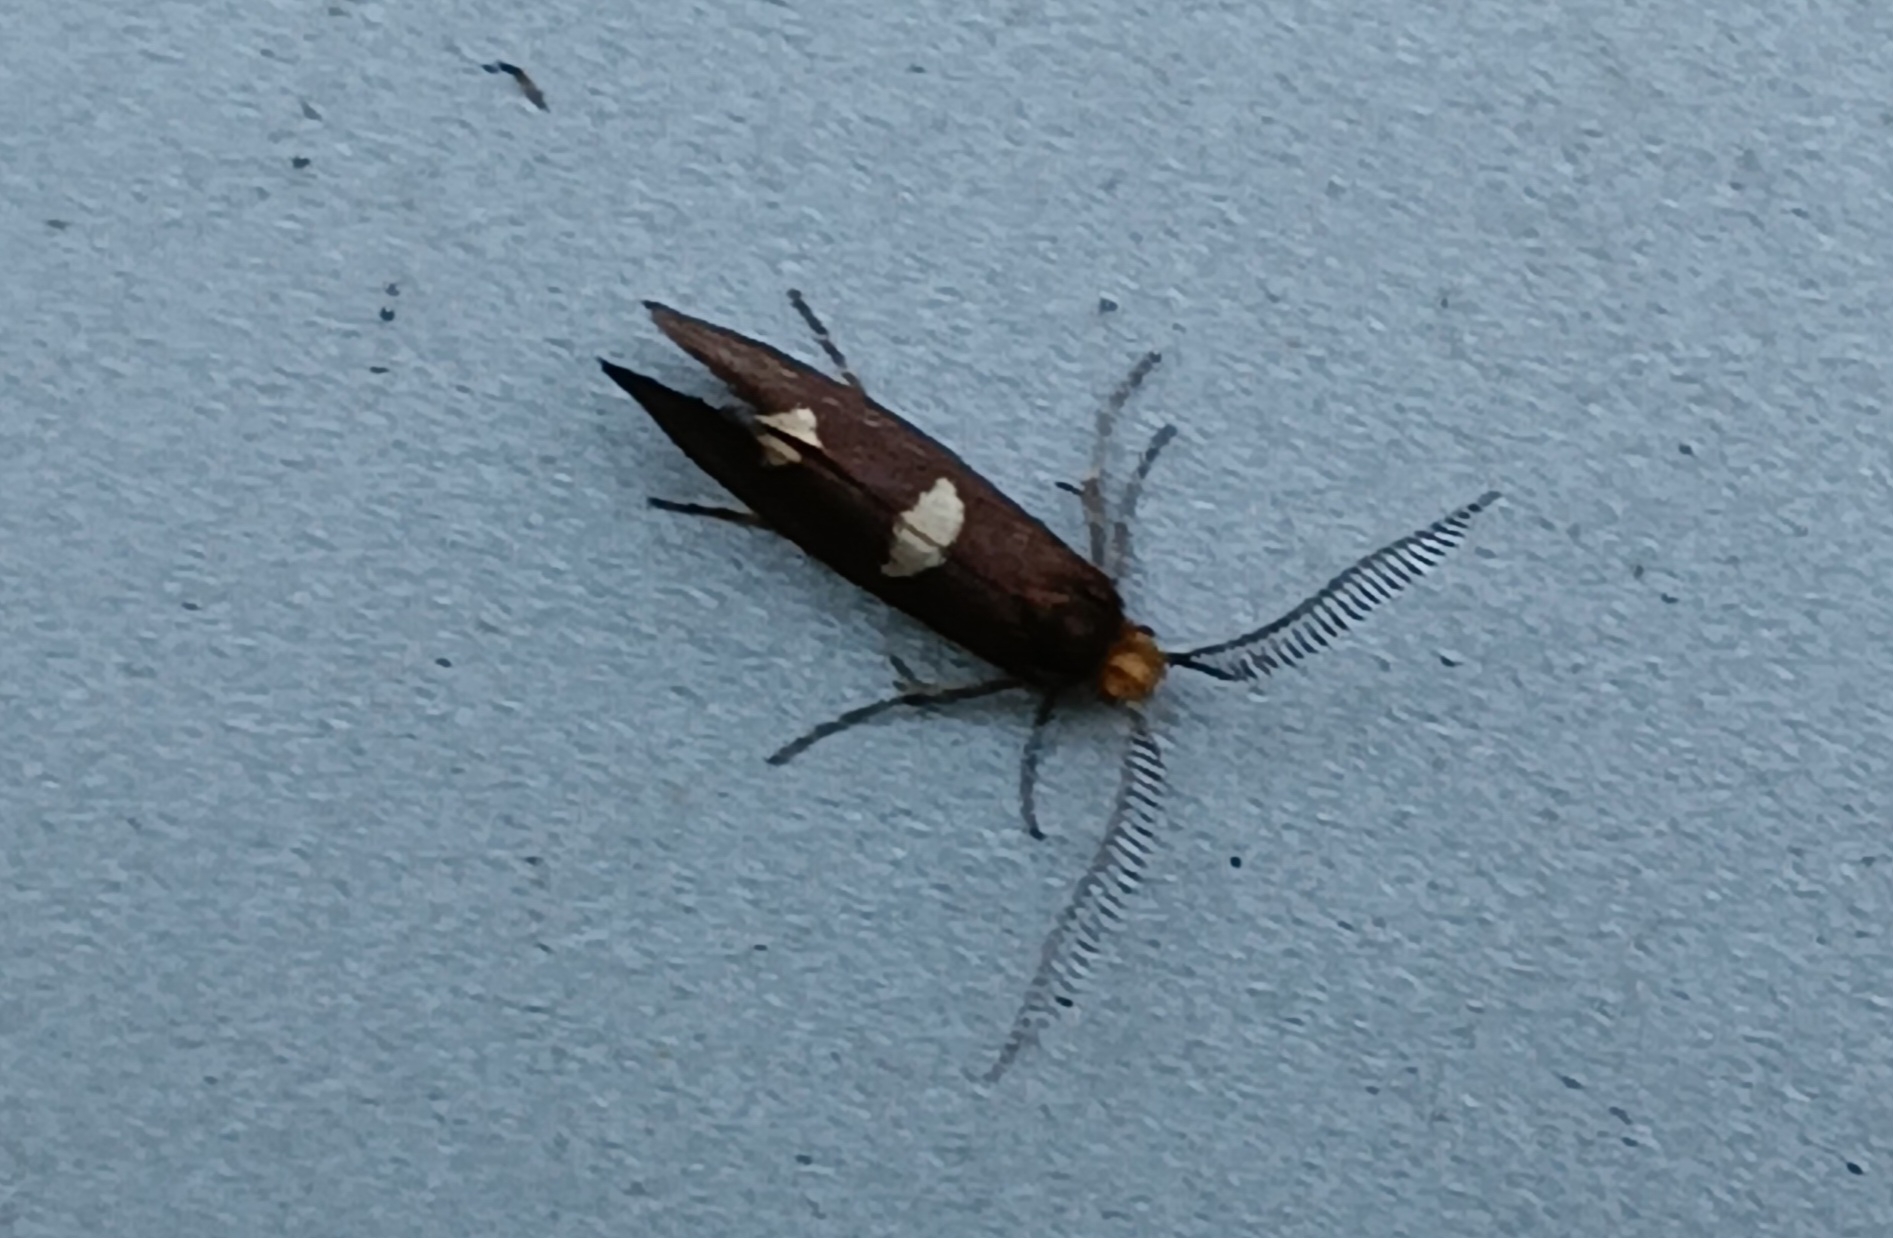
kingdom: Animalia
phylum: Arthropoda
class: Insecta
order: Lepidoptera
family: Incurvariidae
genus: Incurvaria
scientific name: Incurvaria masculella
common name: Mørkt nøjsomt møl
